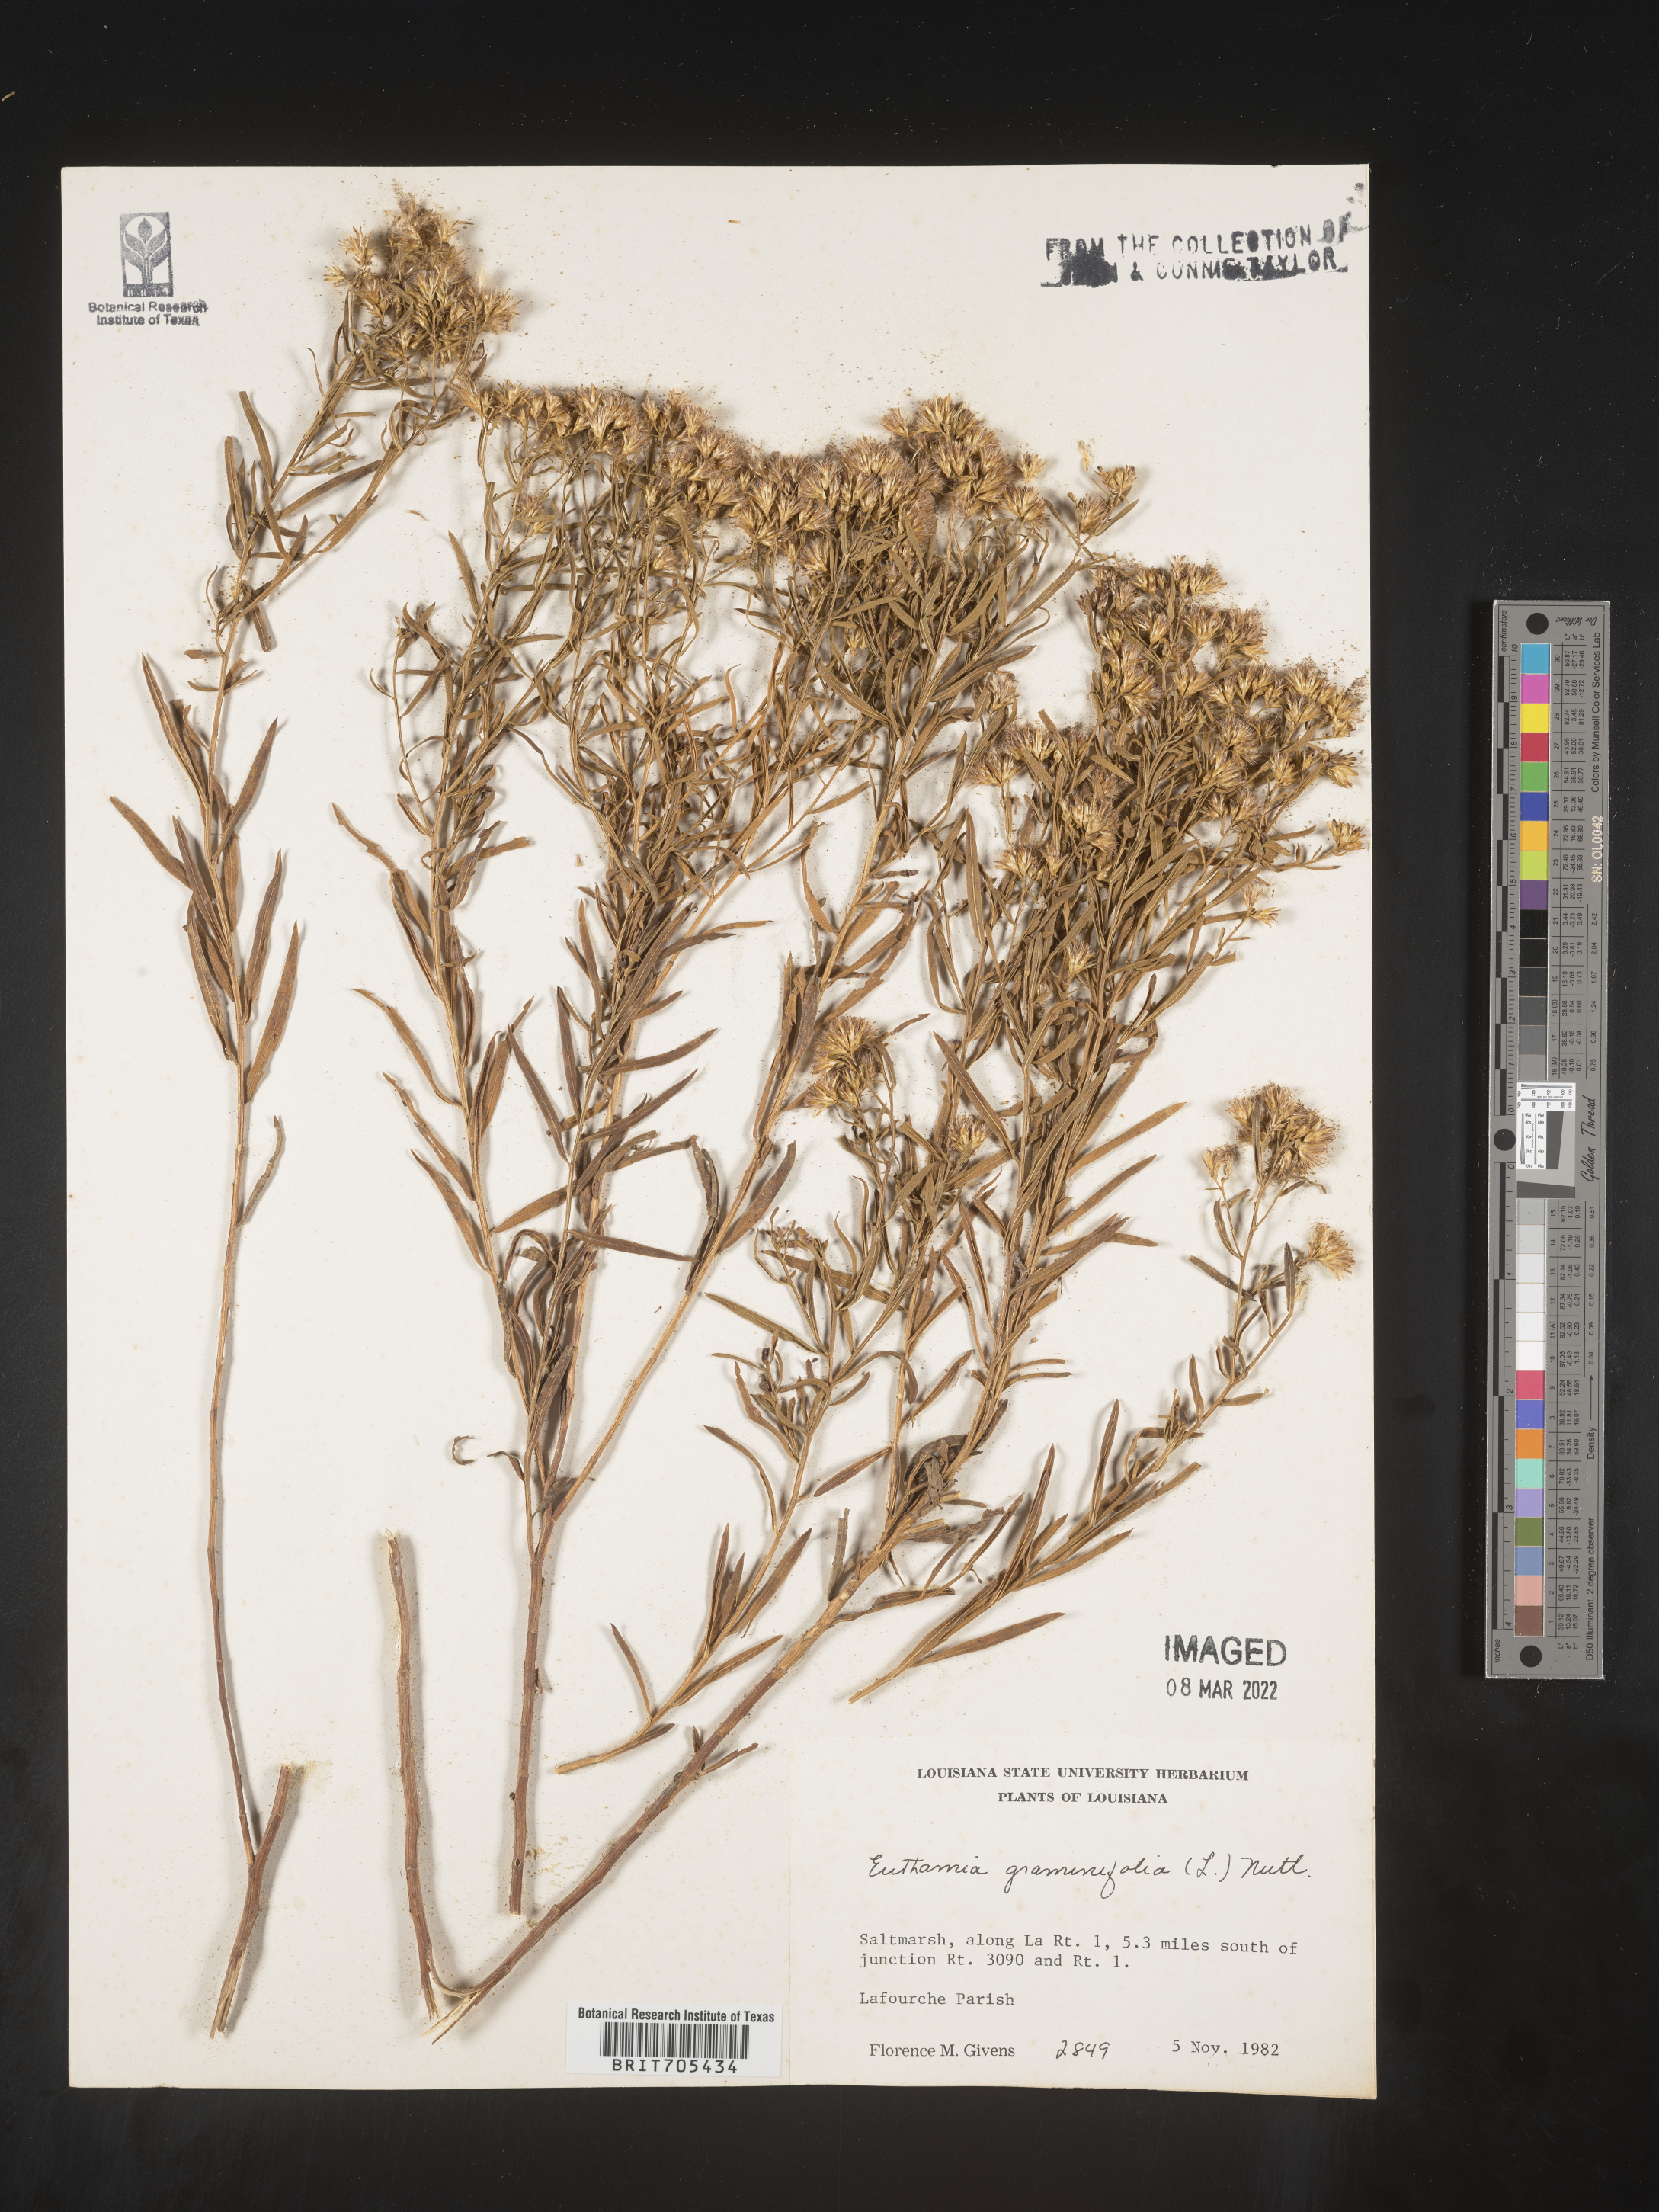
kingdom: Plantae
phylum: Tracheophyta
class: Magnoliopsida
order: Asterales
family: Asteraceae
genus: Euthamia
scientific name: Euthamia
